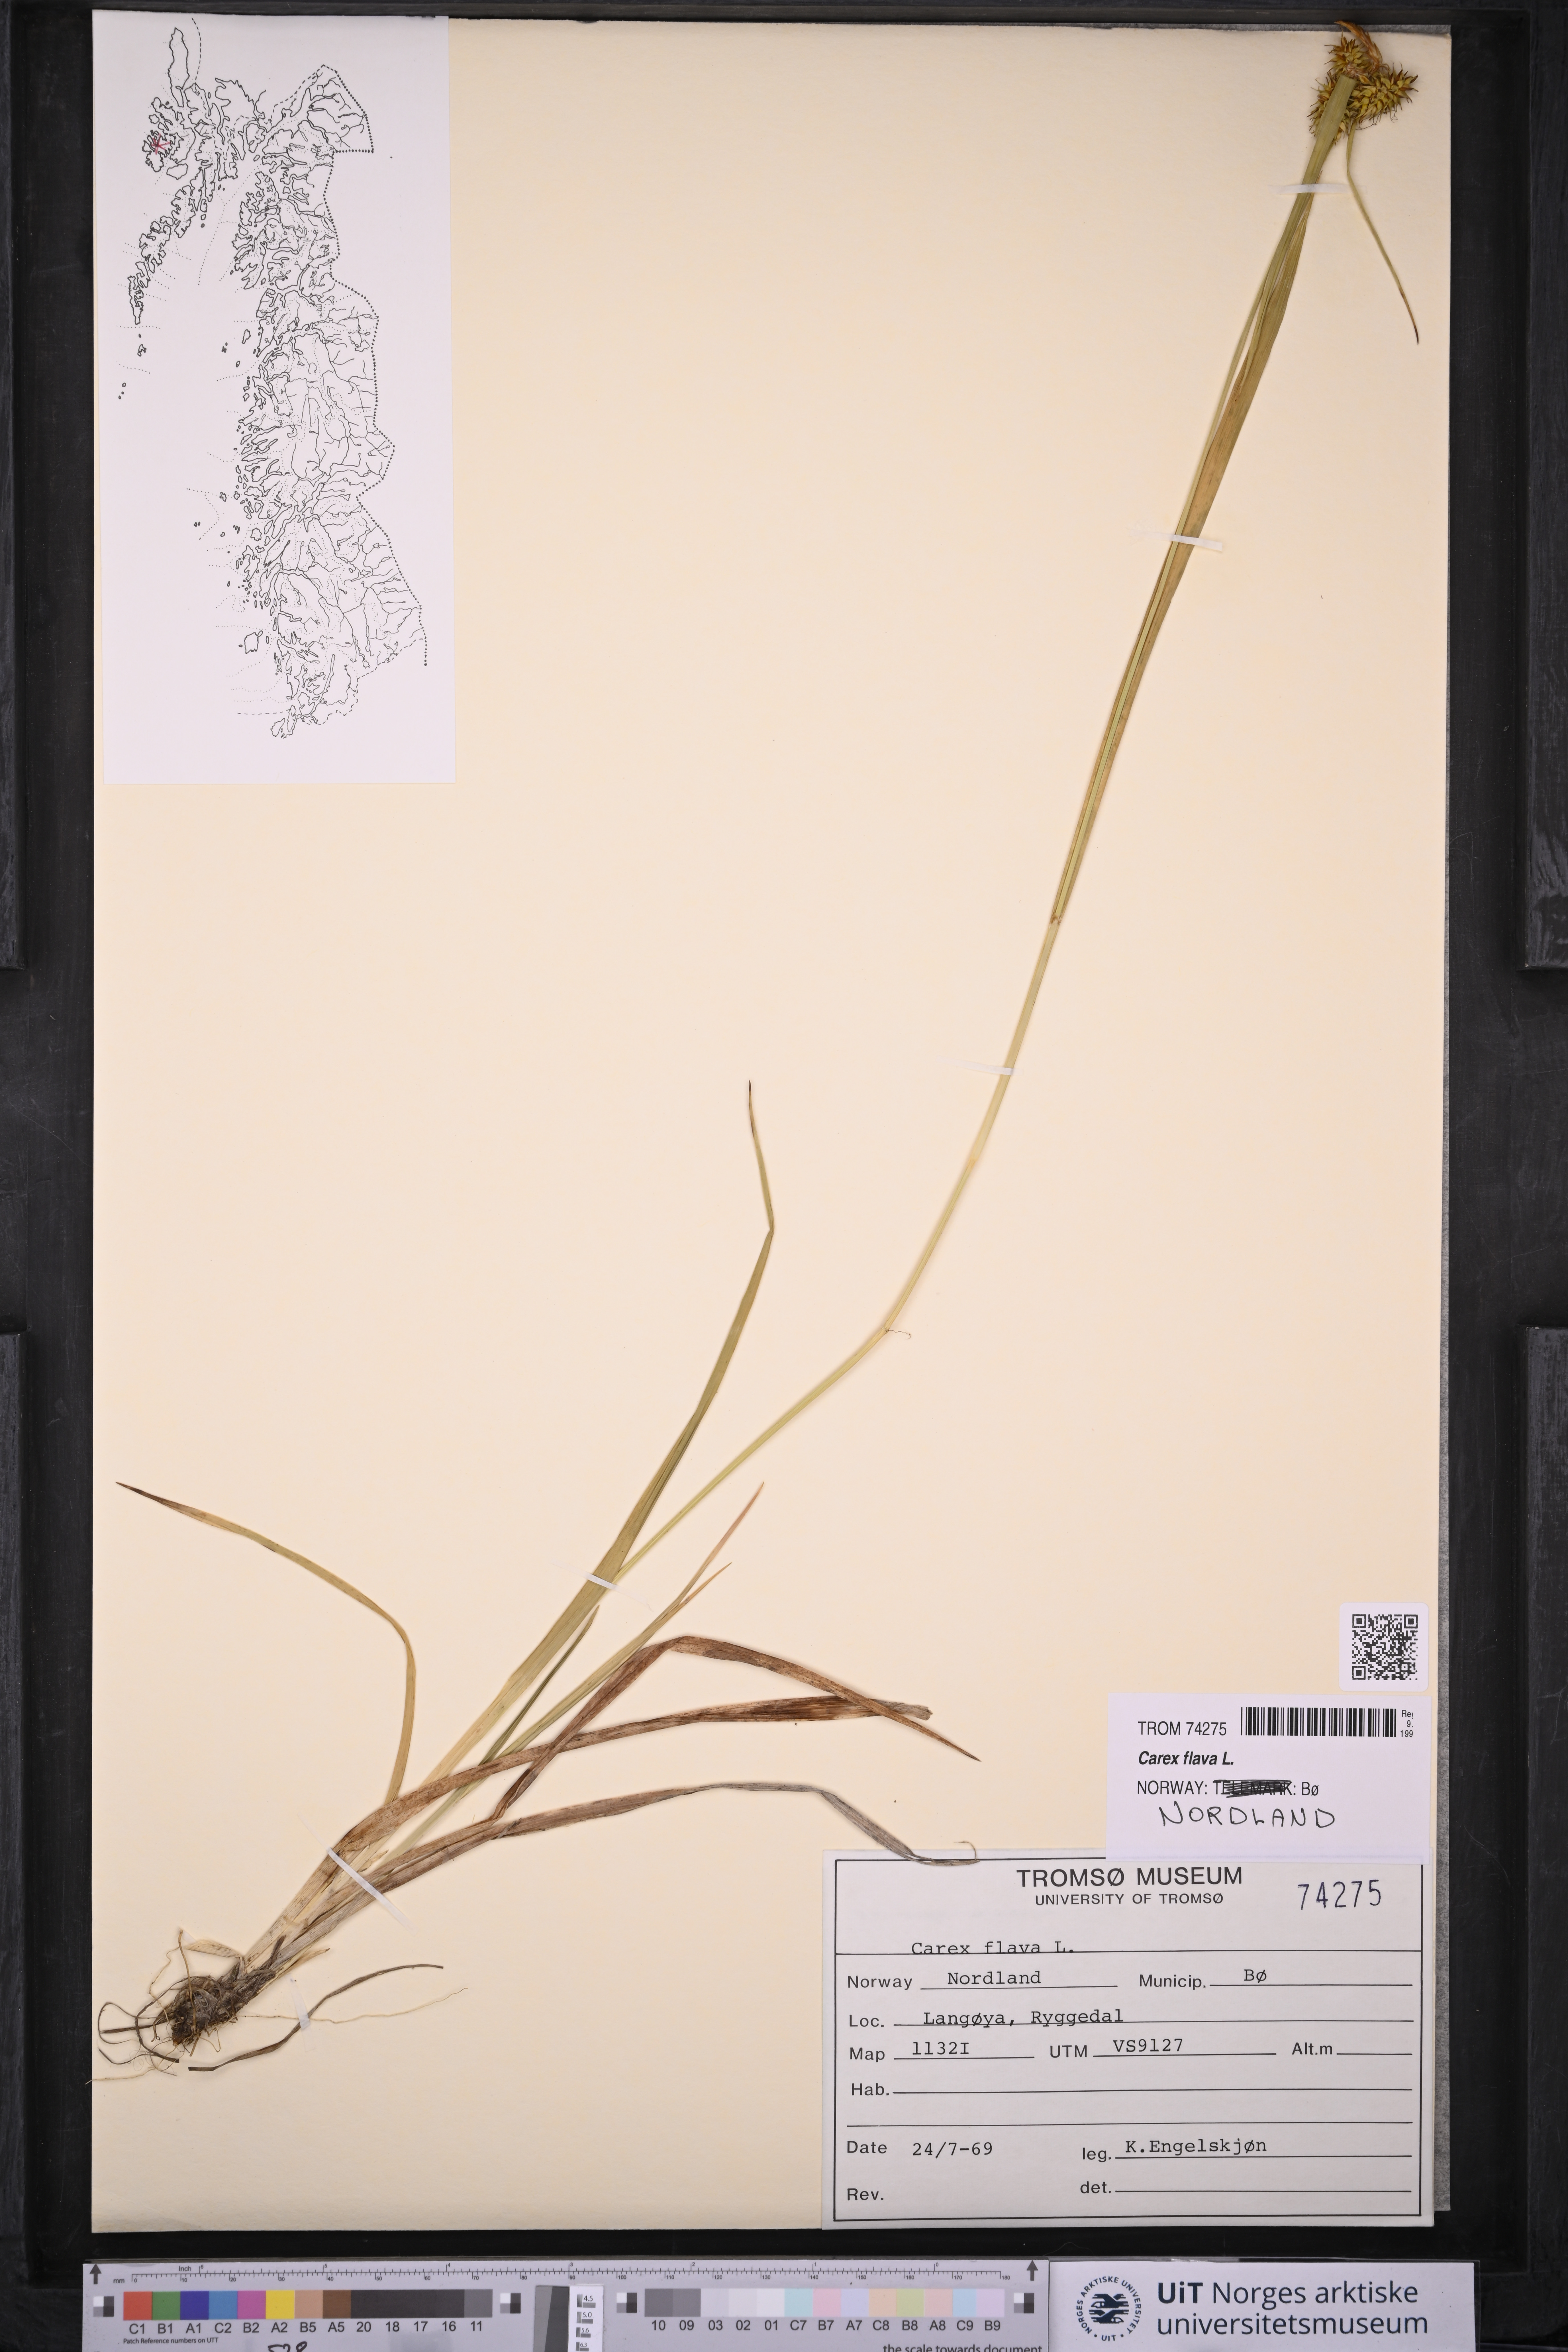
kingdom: Plantae
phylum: Tracheophyta
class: Liliopsida
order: Poales
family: Cyperaceae
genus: Carex
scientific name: Carex flava
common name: Large yellow-sedge
